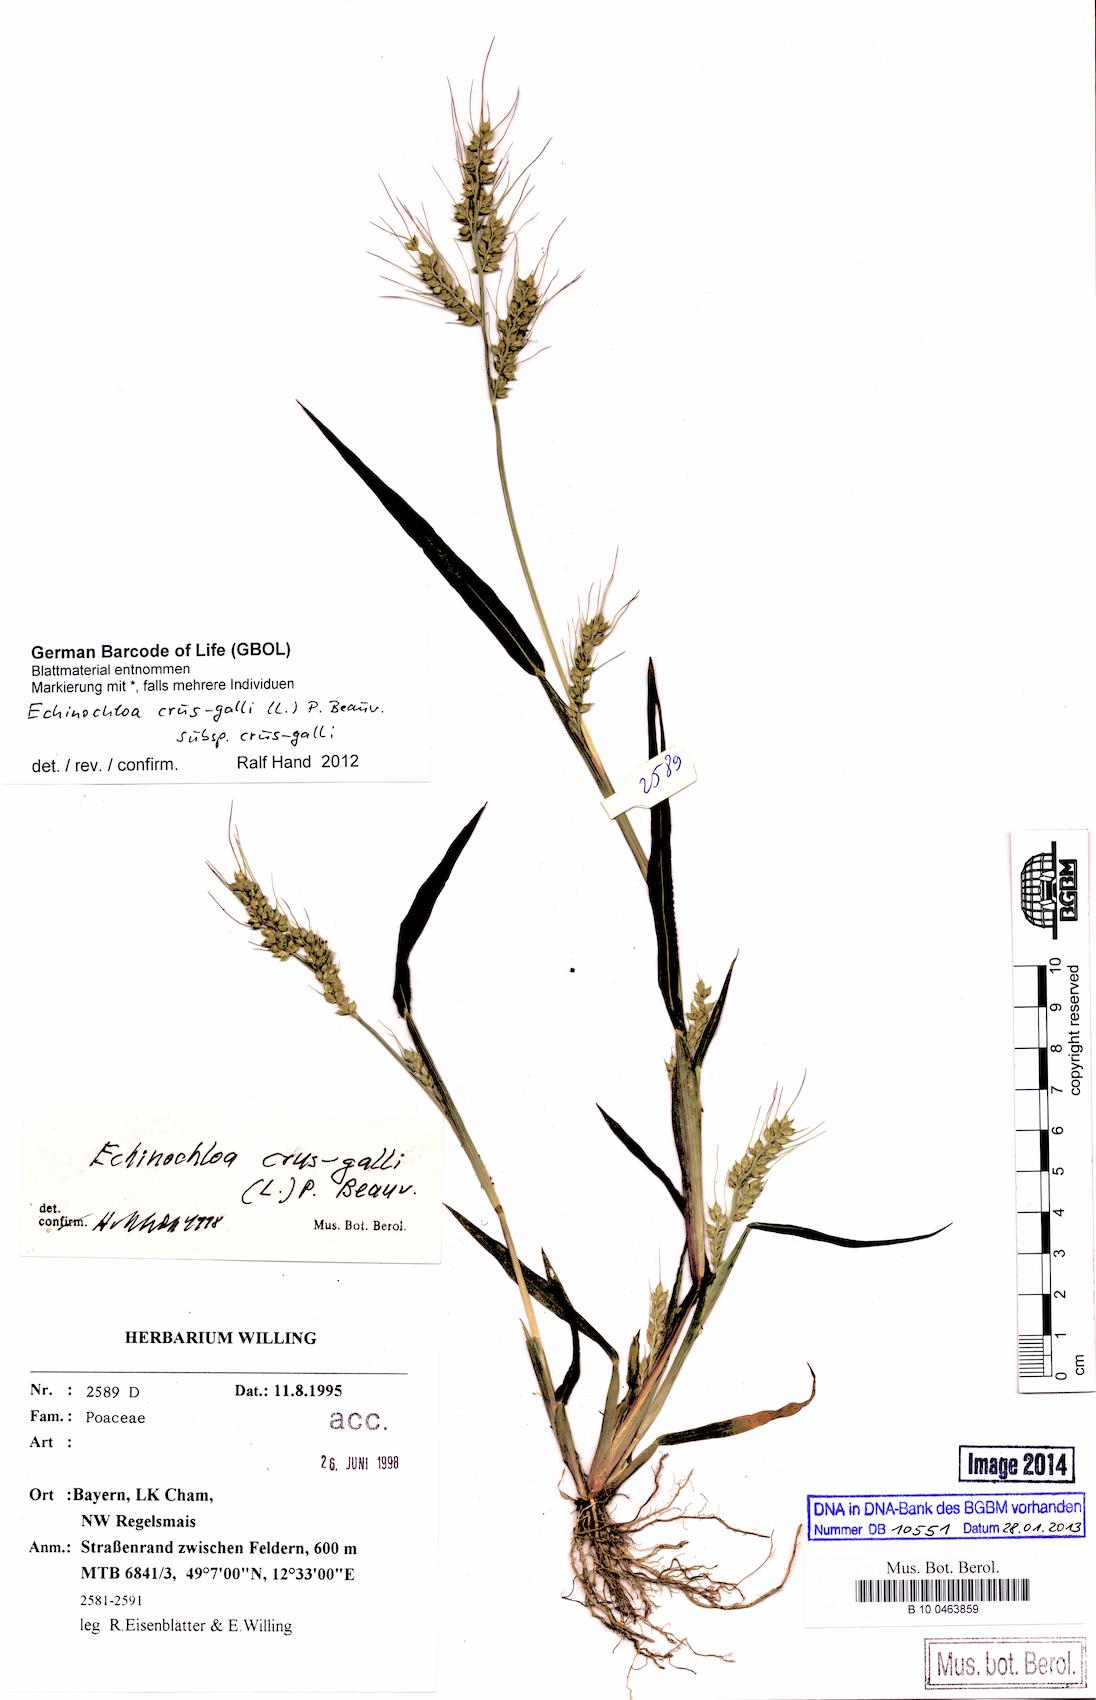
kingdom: Plantae
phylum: Tracheophyta
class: Liliopsida
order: Poales
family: Poaceae
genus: Echinochloa
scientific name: Echinochloa crus-galli
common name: Cockspur
